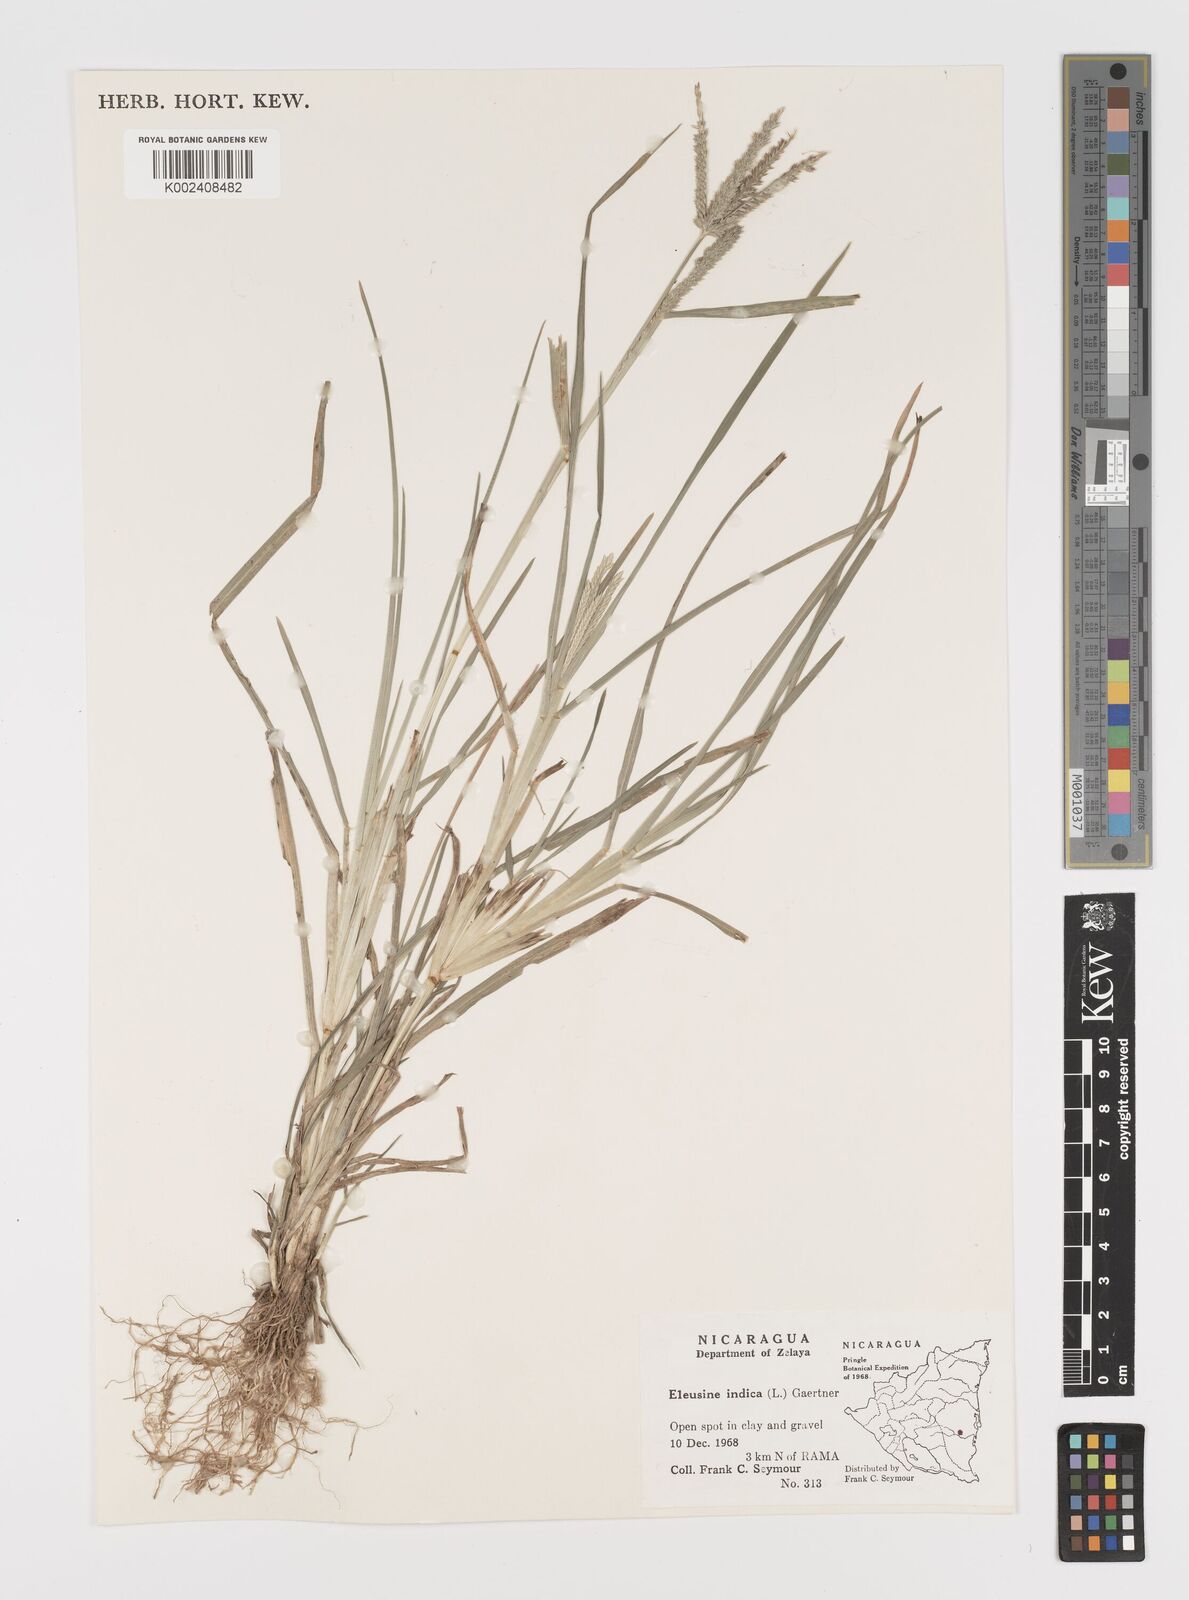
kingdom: Plantae
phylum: Tracheophyta
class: Liliopsida
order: Poales
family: Poaceae
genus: Eleusine
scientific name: Eleusine indica
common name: Yard-grass
